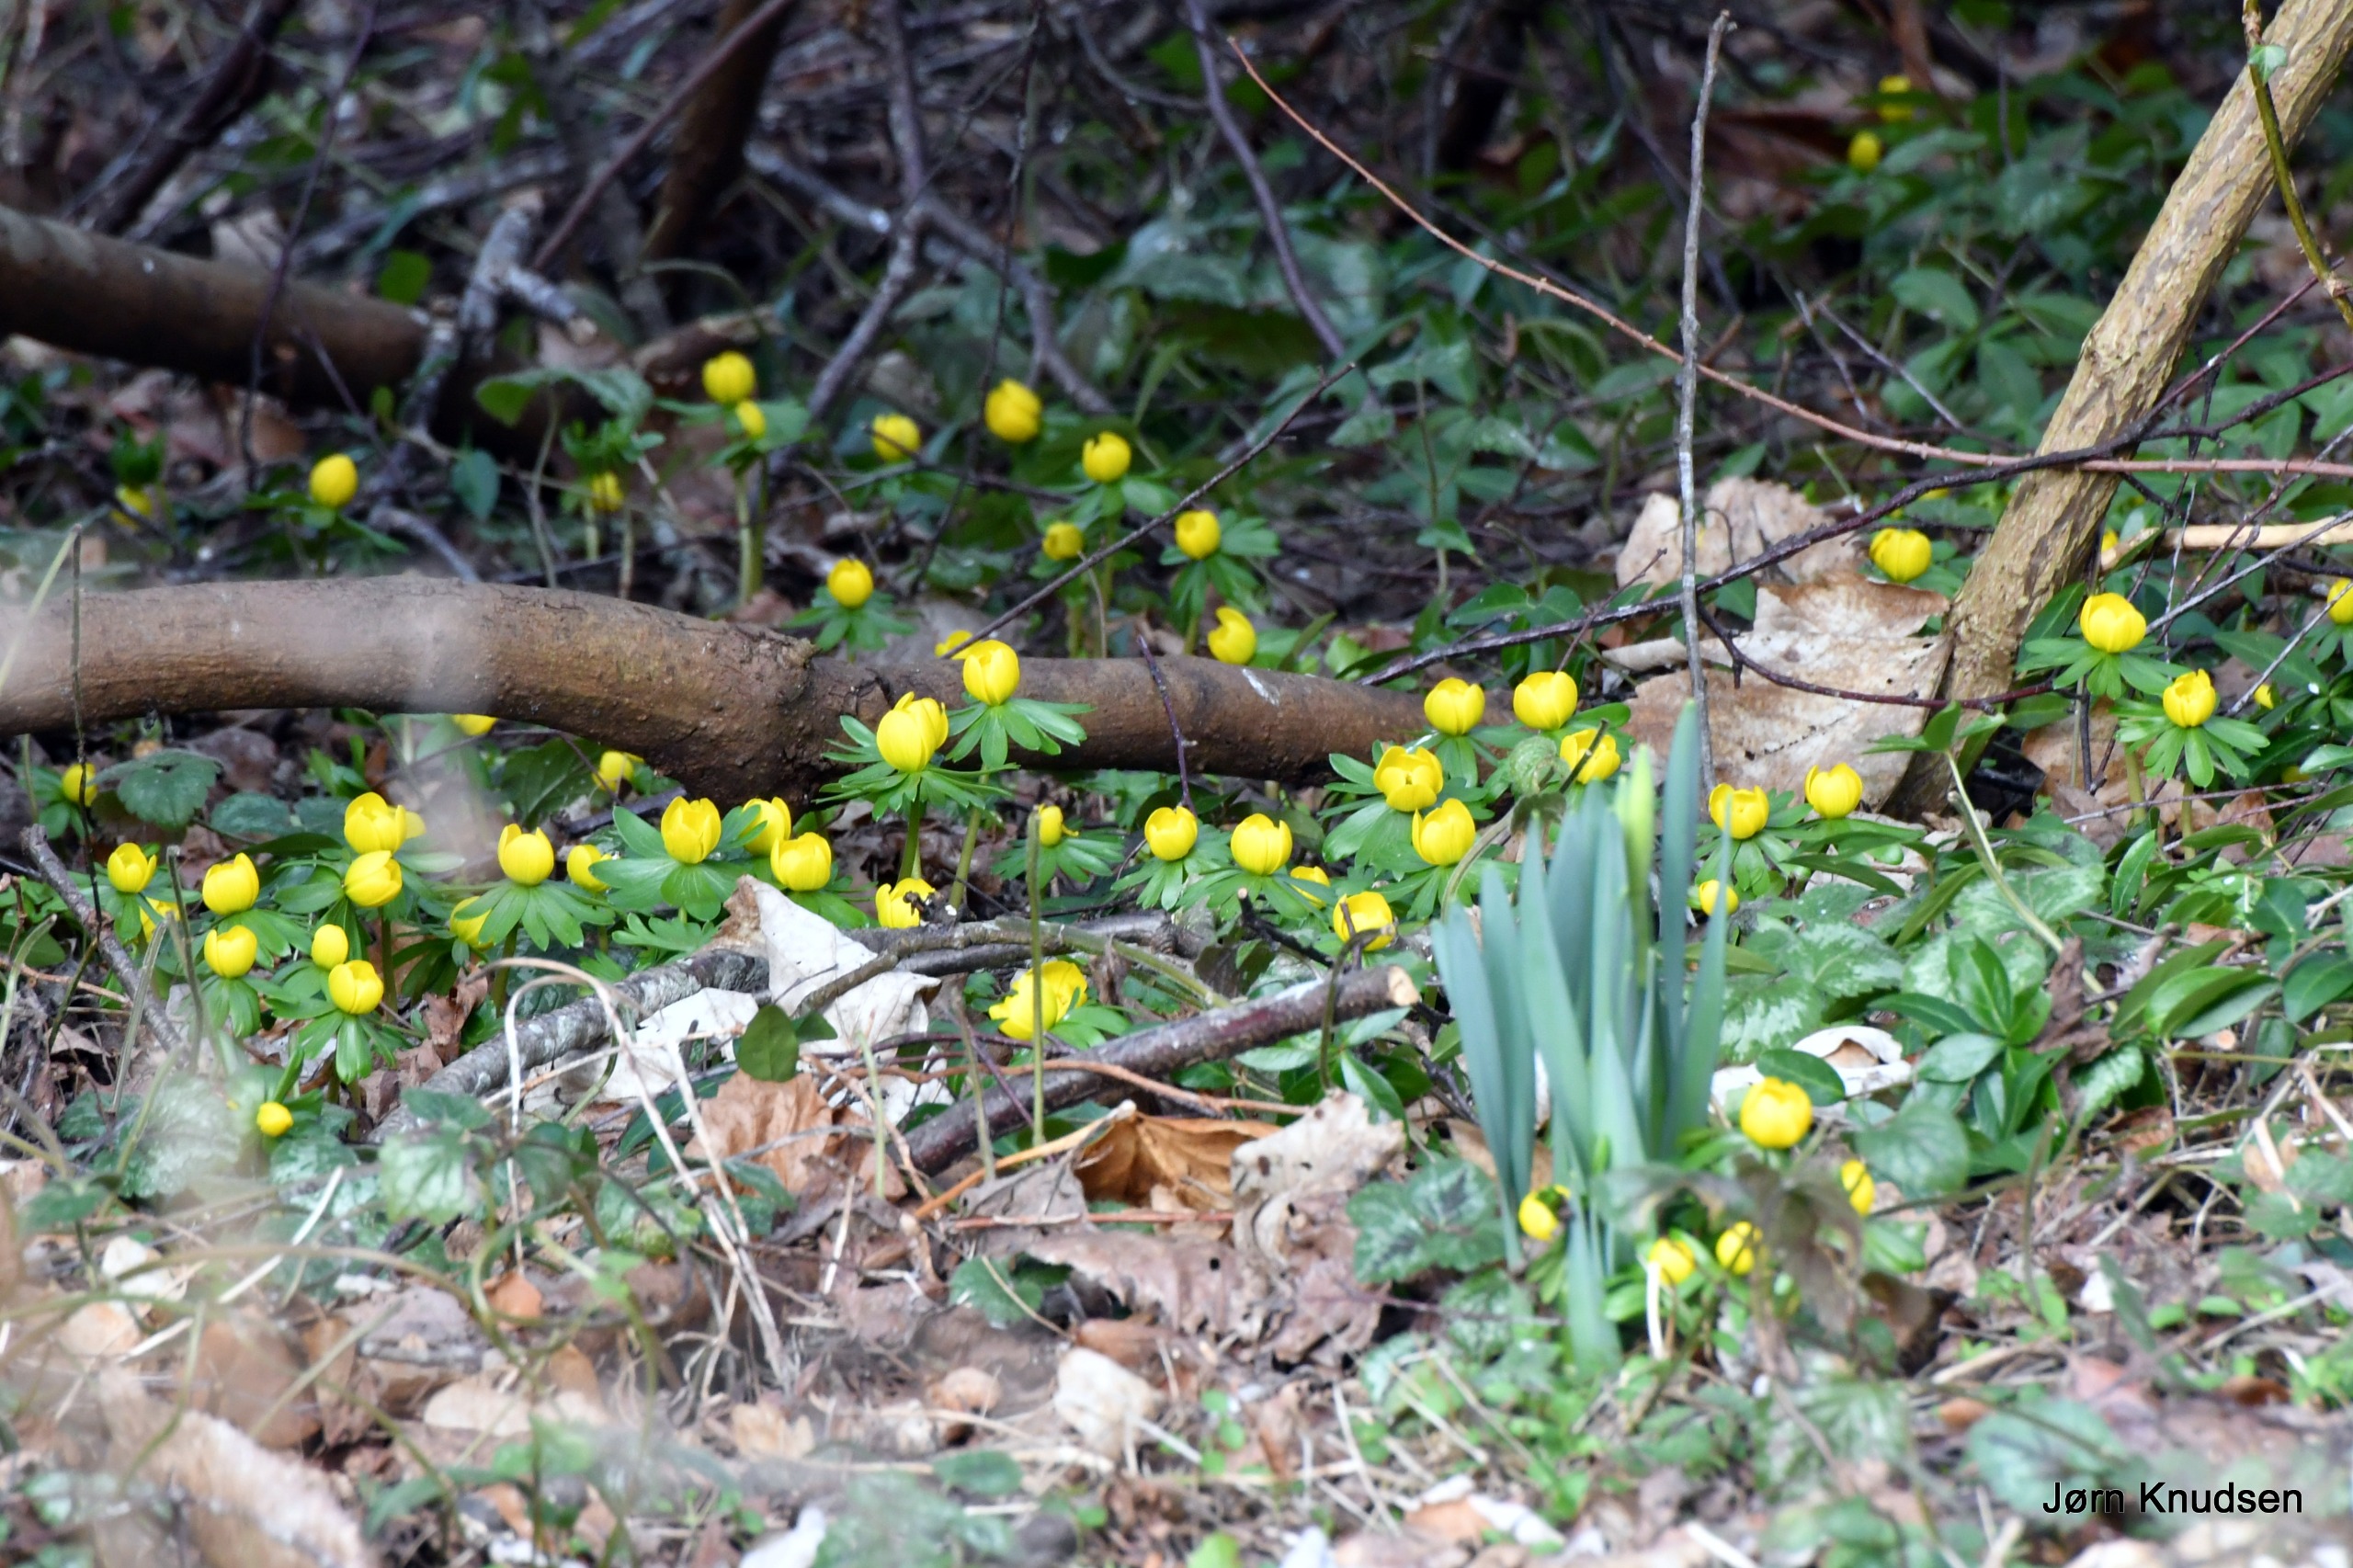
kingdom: Plantae
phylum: Tracheophyta
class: Magnoliopsida
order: Ranunculales
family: Ranunculaceae
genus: Eranthis
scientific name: Eranthis hyemalis
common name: Erantis
